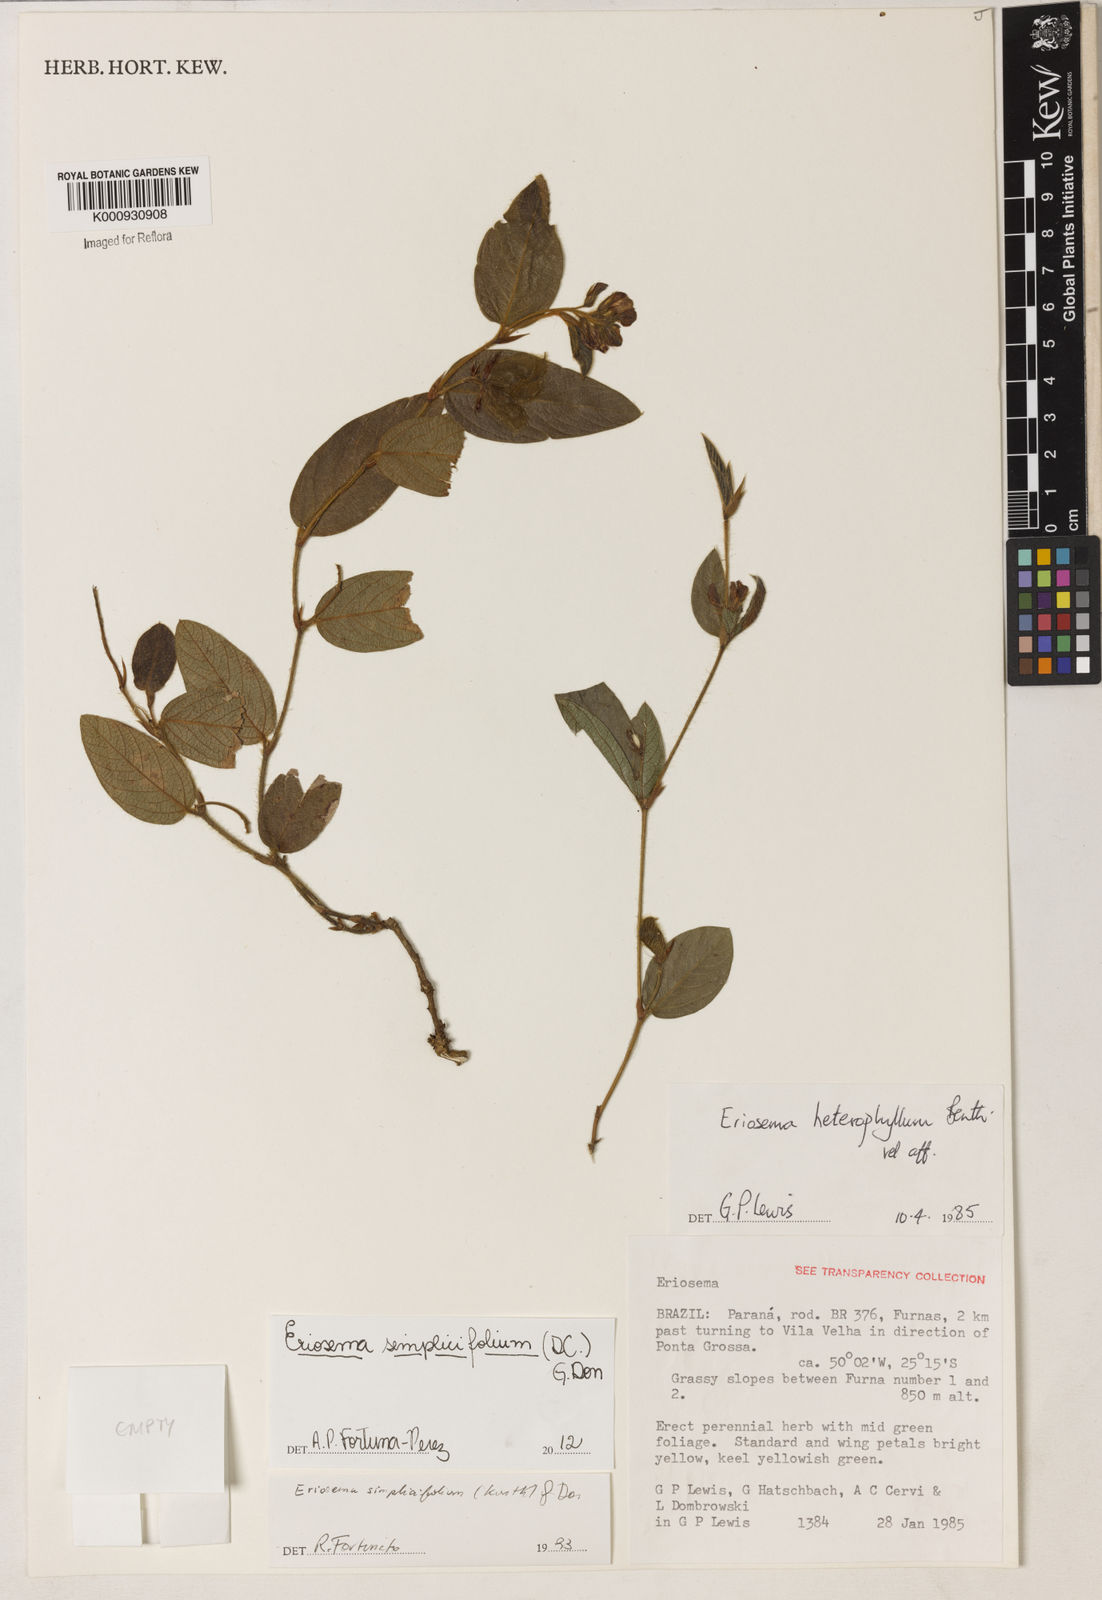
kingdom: Plantae
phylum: Tracheophyta
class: Magnoliopsida
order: Fabales
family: Fabaceae
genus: Eriosema
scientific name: Eriosema simplicifolium
